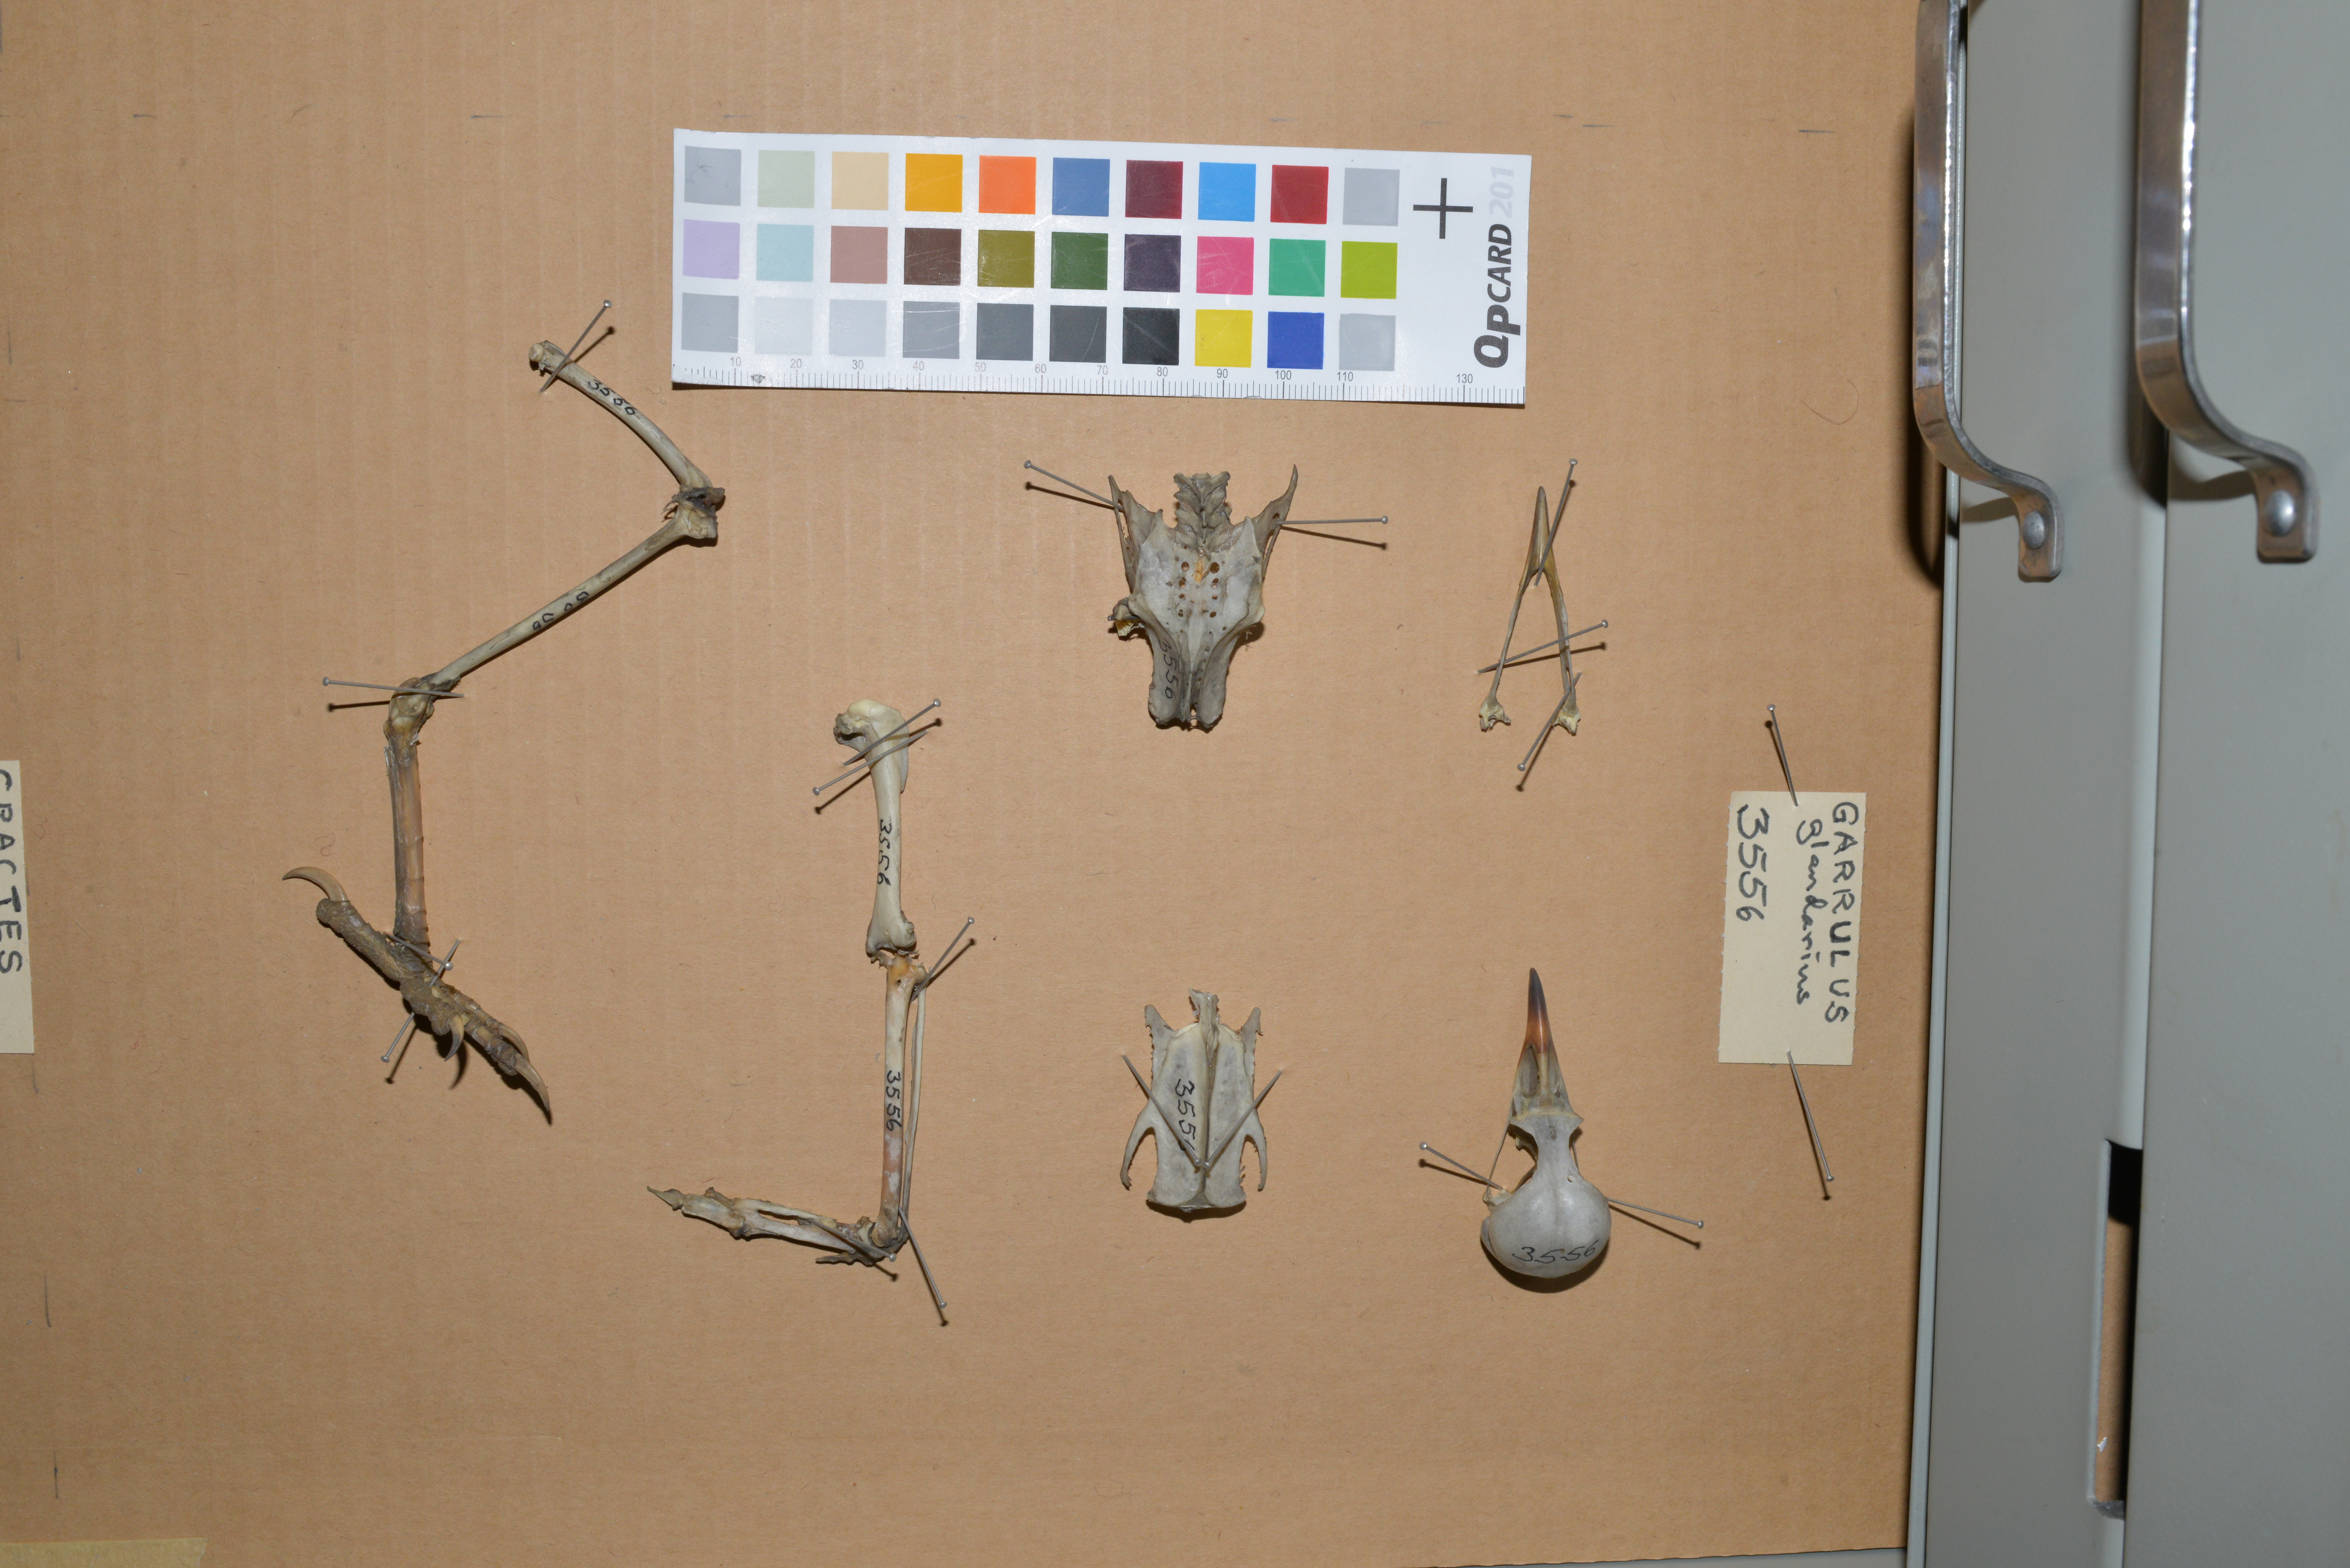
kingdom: Animalia
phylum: Chordata
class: Aves
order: Passeriformes
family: Corvidae
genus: Garrulus
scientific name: Garrulus glandarius
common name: Eurasian jay
